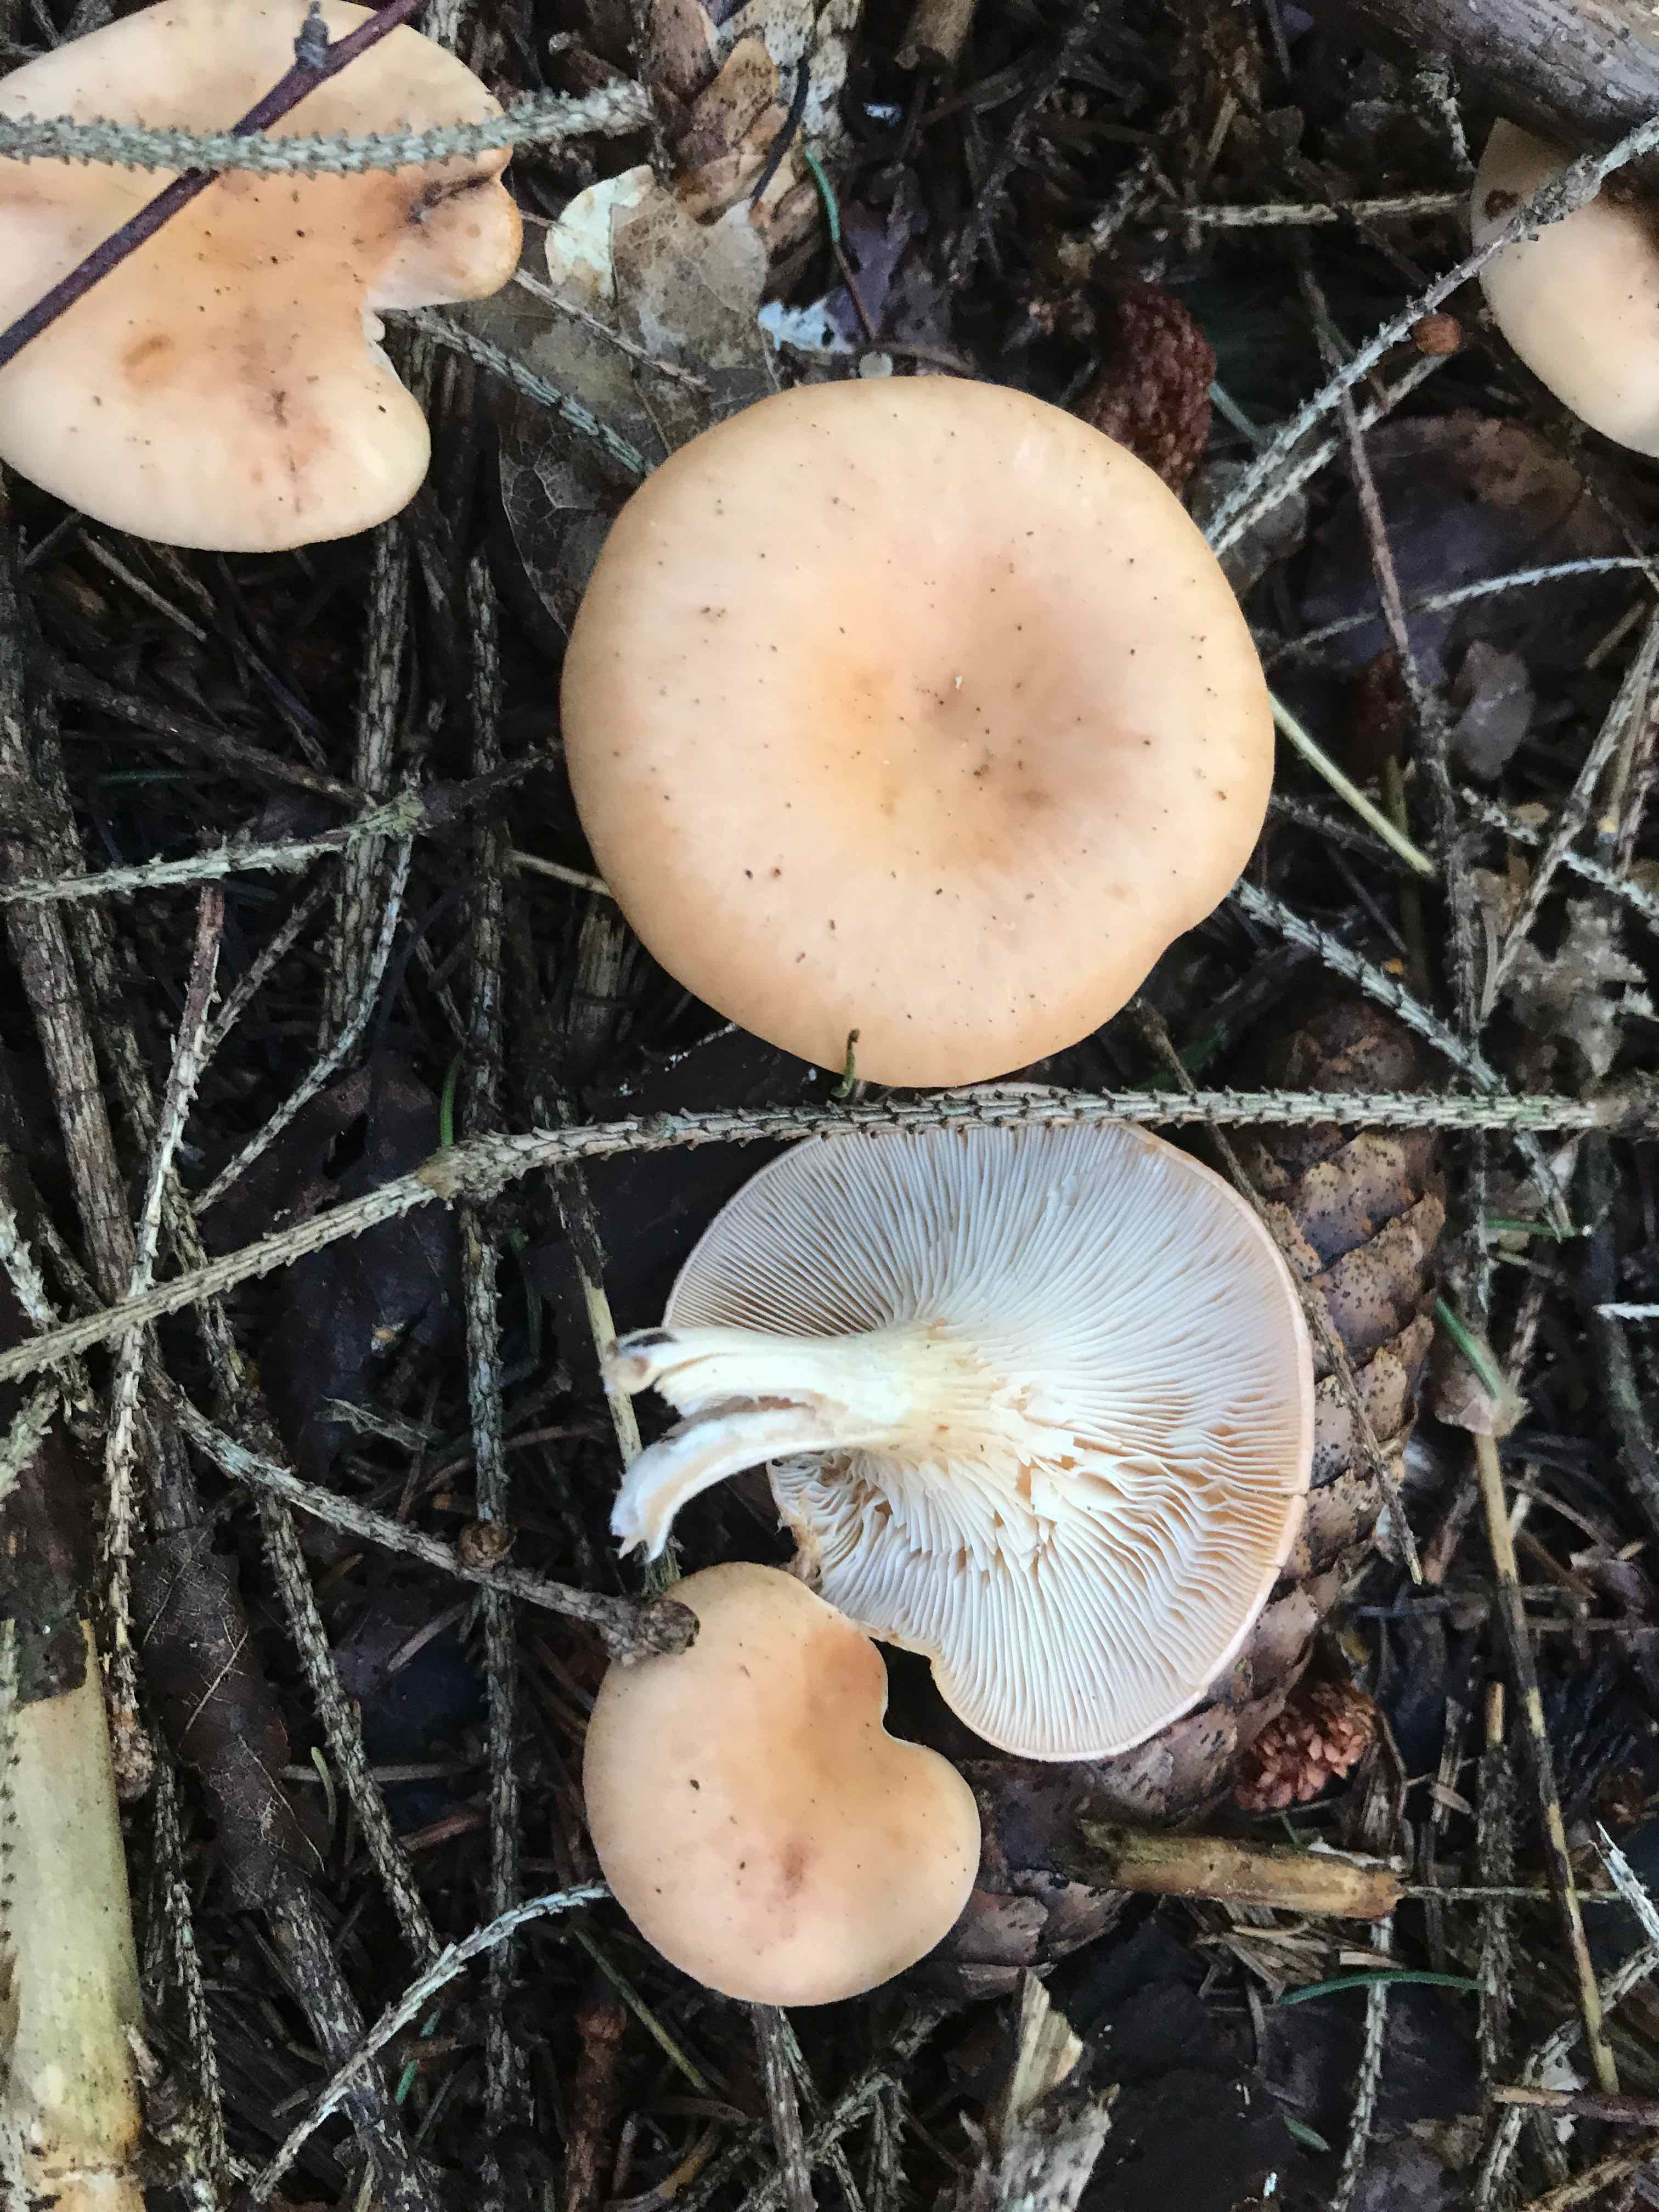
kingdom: Fungi
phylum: Basidiomycota
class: Agaricomycetes
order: Agaricales
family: Tricholomataceae
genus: Paralepista
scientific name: Paralepista flaccida
